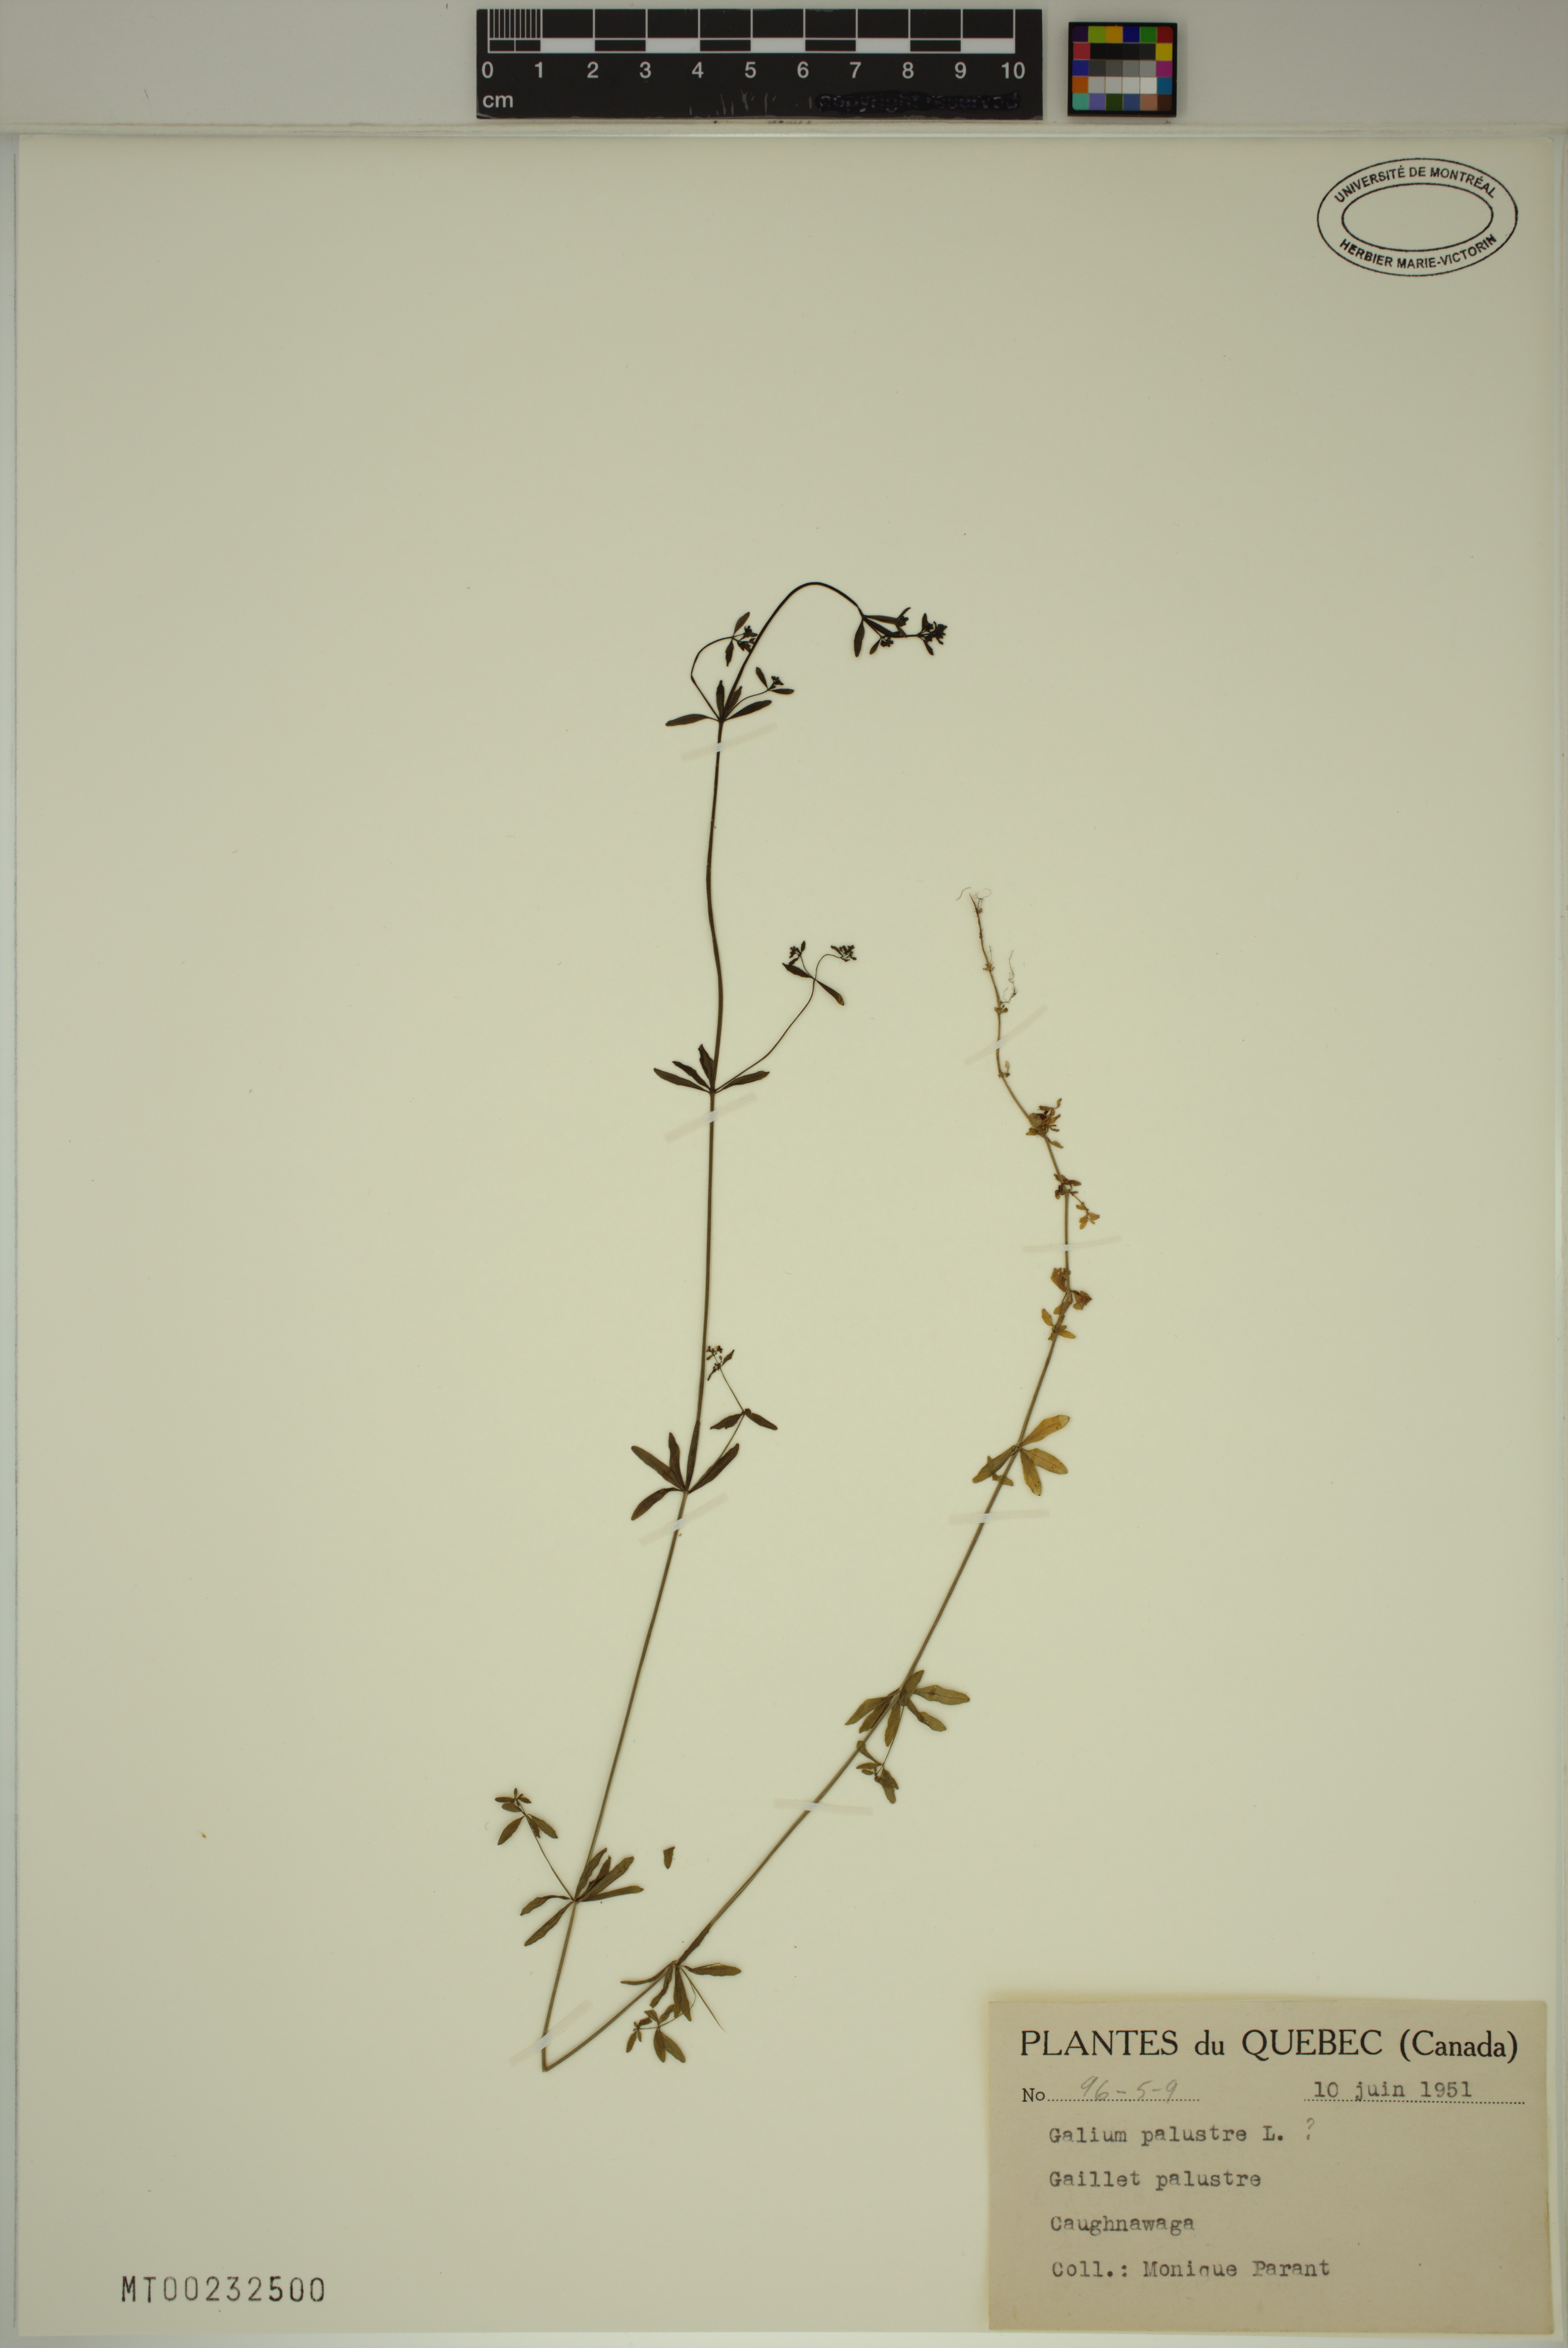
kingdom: Plantae
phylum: Tracheophyta
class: Magnoliopsida
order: Gentianales
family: Rubiaceae
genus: Galium
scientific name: Galium palustre
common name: Common marsh-bedstraw
